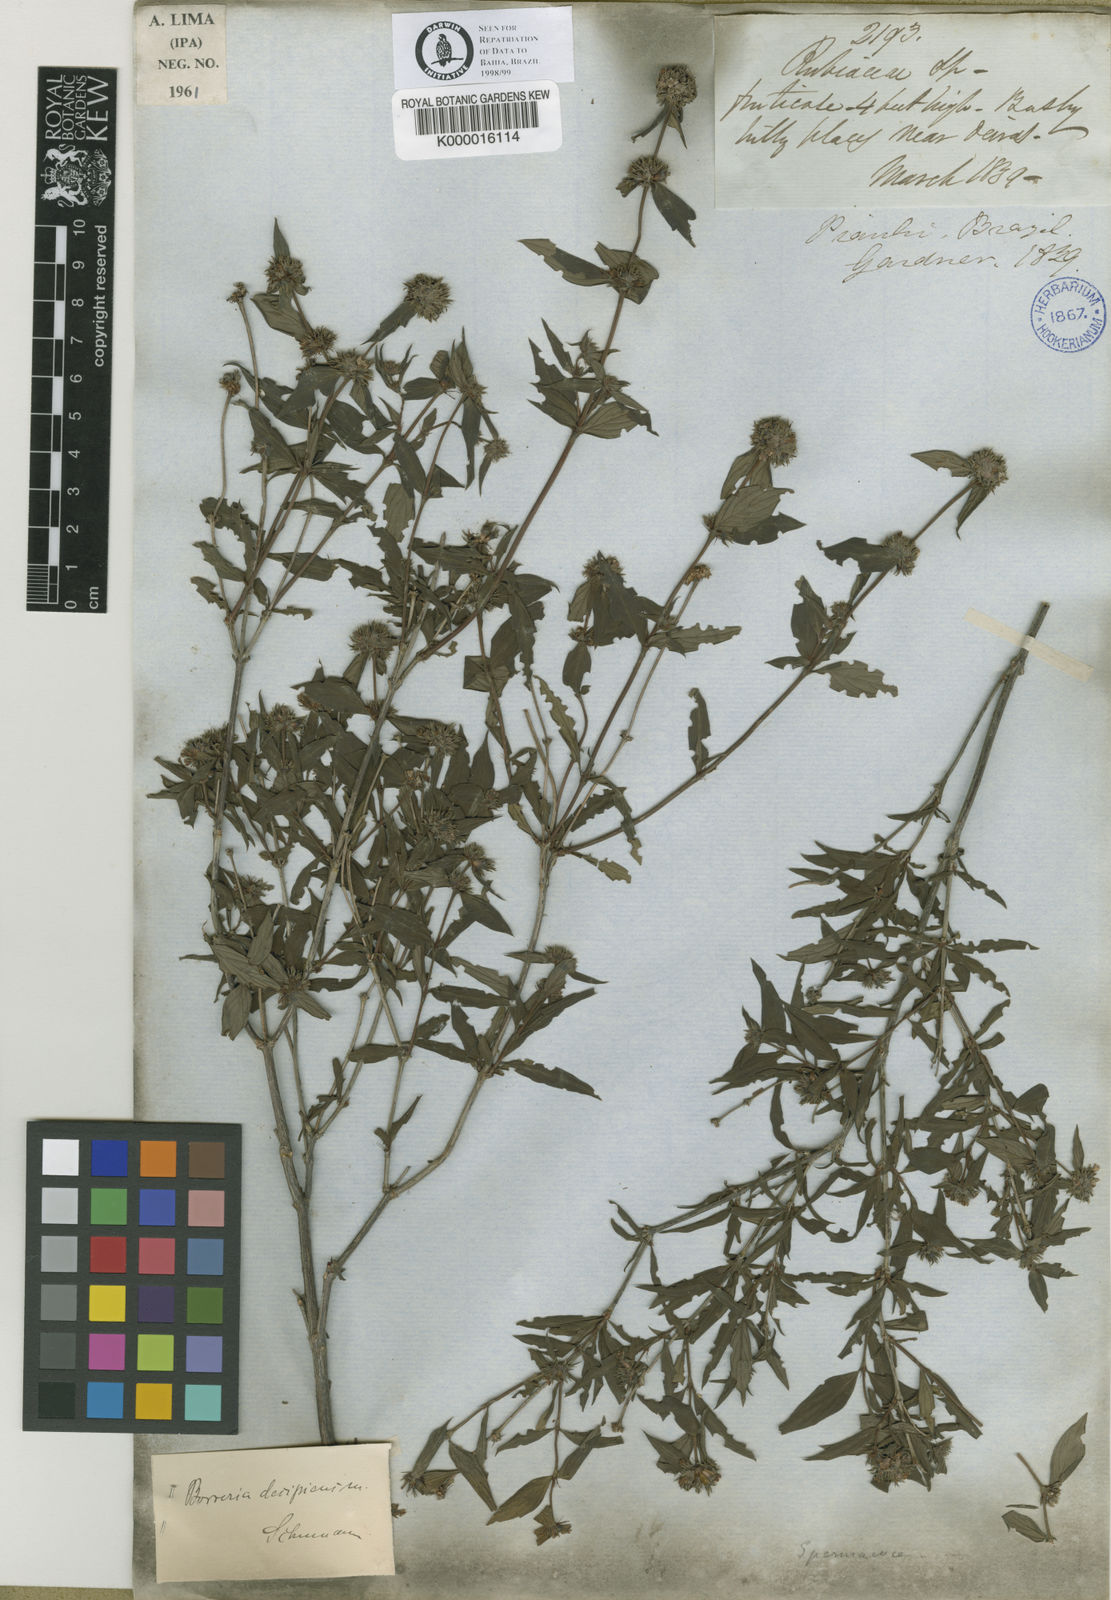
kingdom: Plantae
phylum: Tracheophyta
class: Magnoliopsida
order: Gentianales
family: Rubiaceae
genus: Spermacoce
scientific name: Spermacoce decipiens
